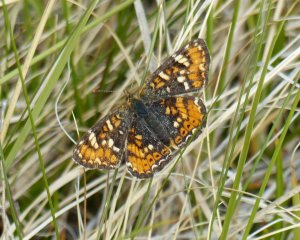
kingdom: Animalia
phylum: Arthropoda
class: Insecta
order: Lepidoptera
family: Nymphalidae
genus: Phyciodes
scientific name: Phyciodes tharos
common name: Field Crescent
